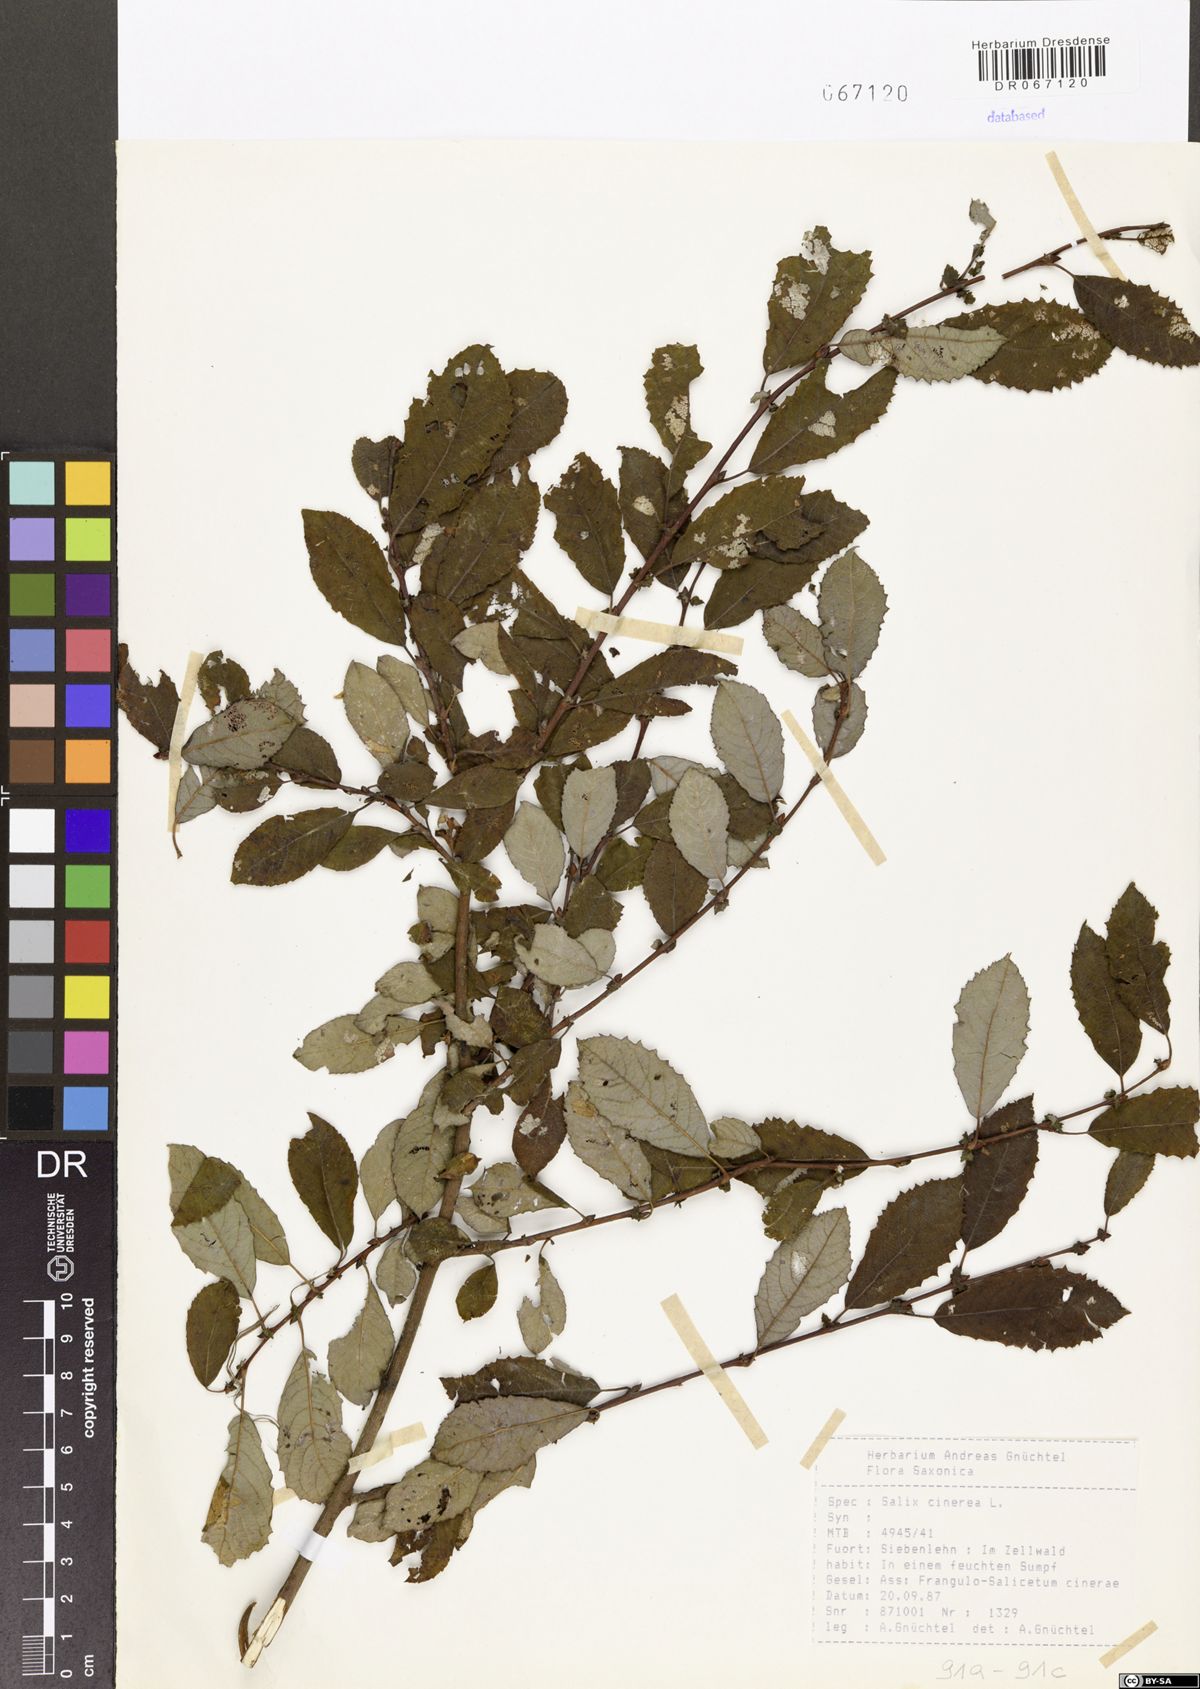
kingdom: Plantae
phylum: Tracheophyta
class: Magnoliopsida
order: Malpighiales
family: Salicaceae
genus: Salix
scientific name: Salix cinerea
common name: Common sallow
